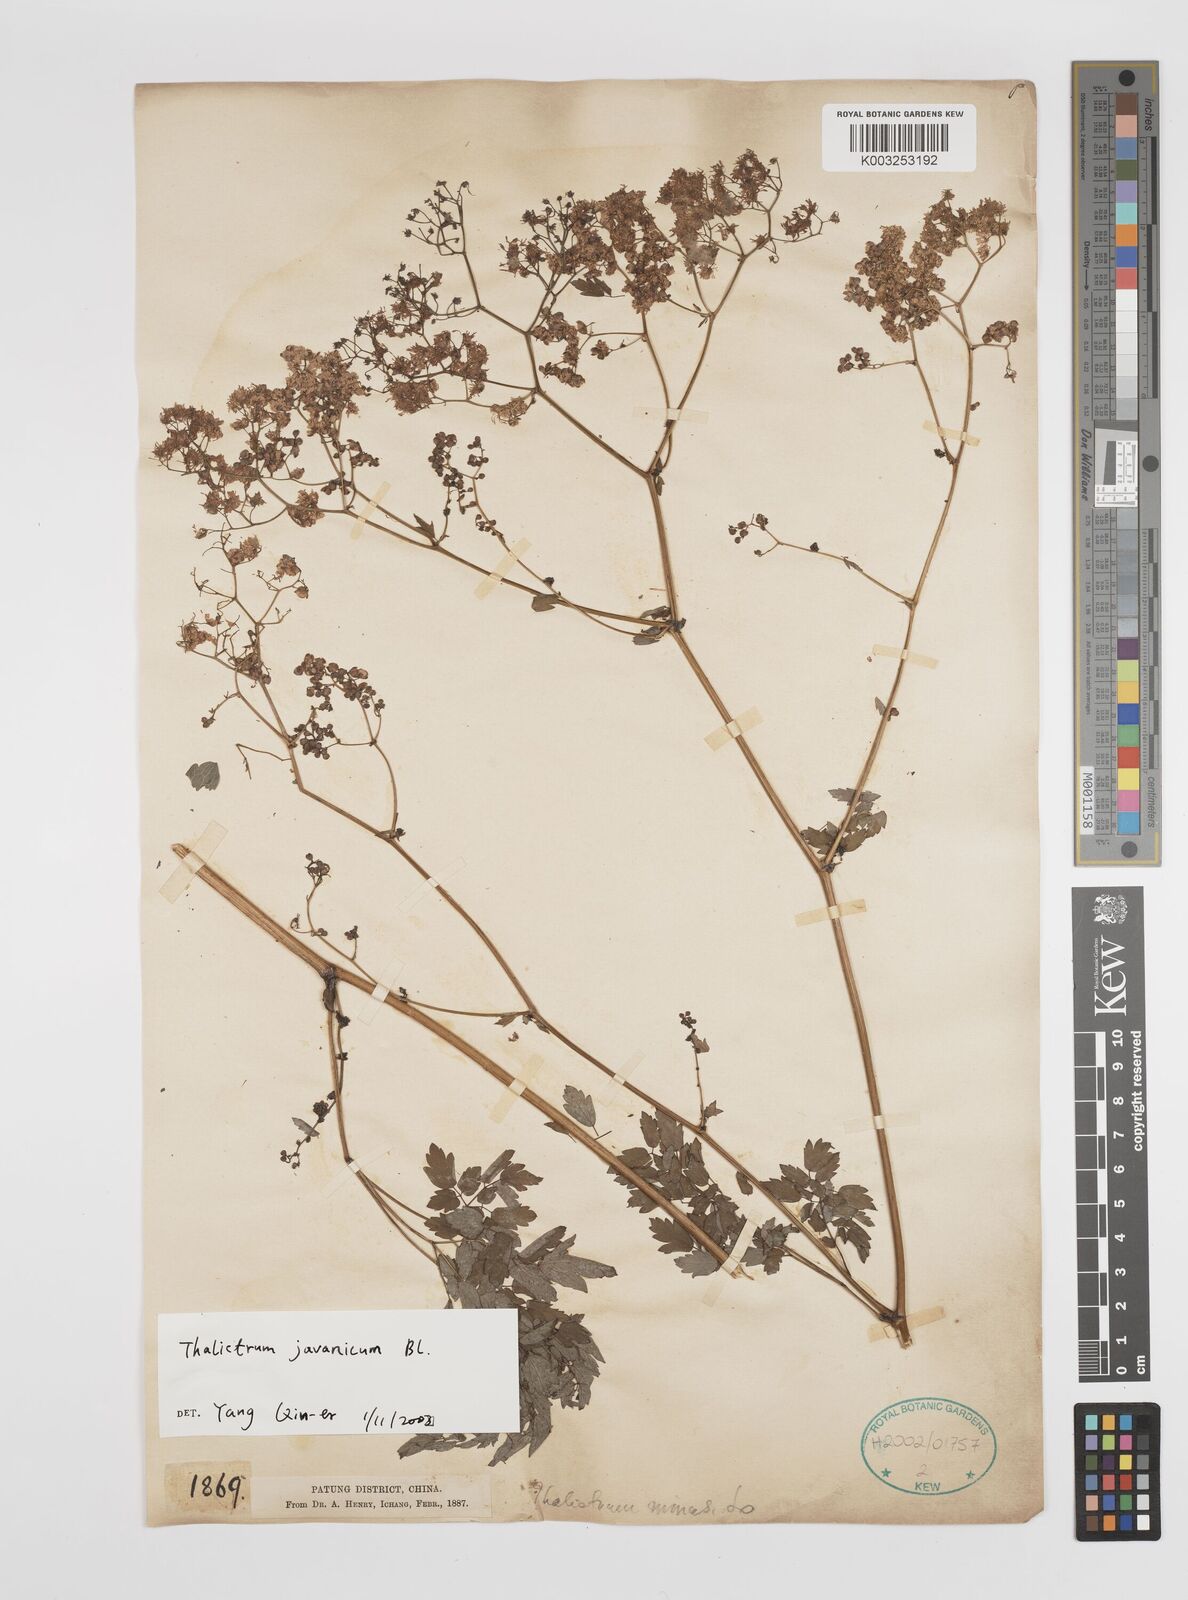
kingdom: Plantae
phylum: Tracheophyta
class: Magnoliopsida
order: Ranunculales
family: Ranunculaceae
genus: Thalictrum
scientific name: Thalictrum javanicum
